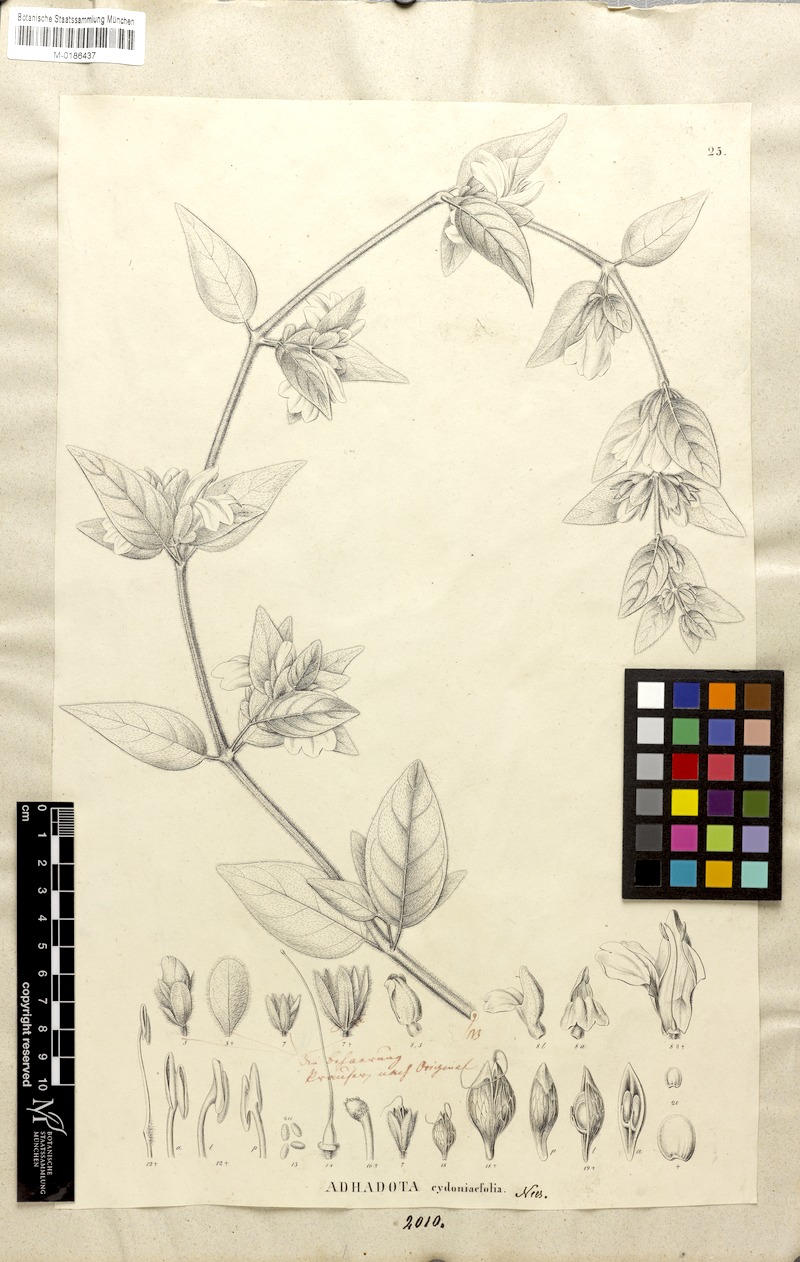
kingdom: Plantae
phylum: Tracheophyta
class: Magnoliopsida
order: Lamiales
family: Acanthaceae
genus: Justicia
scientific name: Justicia cydoniifolia
